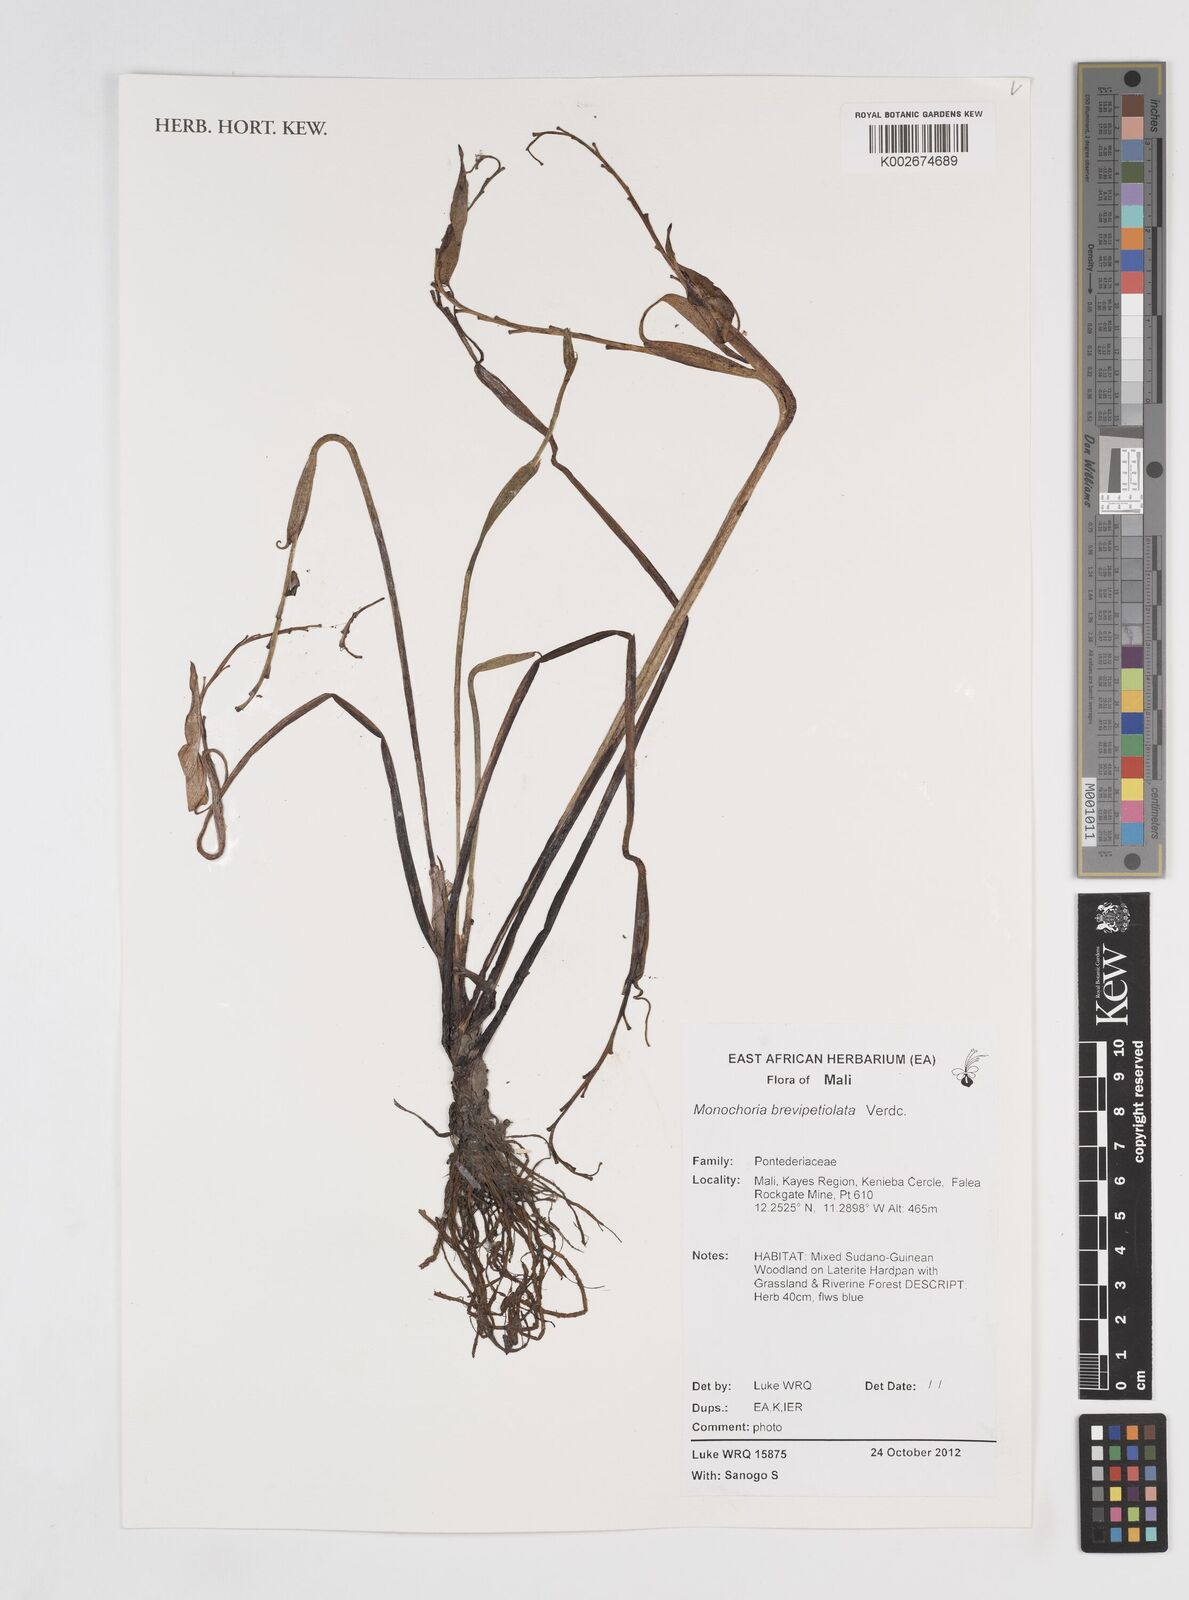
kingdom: Plantae
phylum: Tracheophyta
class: Liliopsida
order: Commelinales
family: Pontederiaceae
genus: Pontederia
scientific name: Pontederia brevipetiolata
